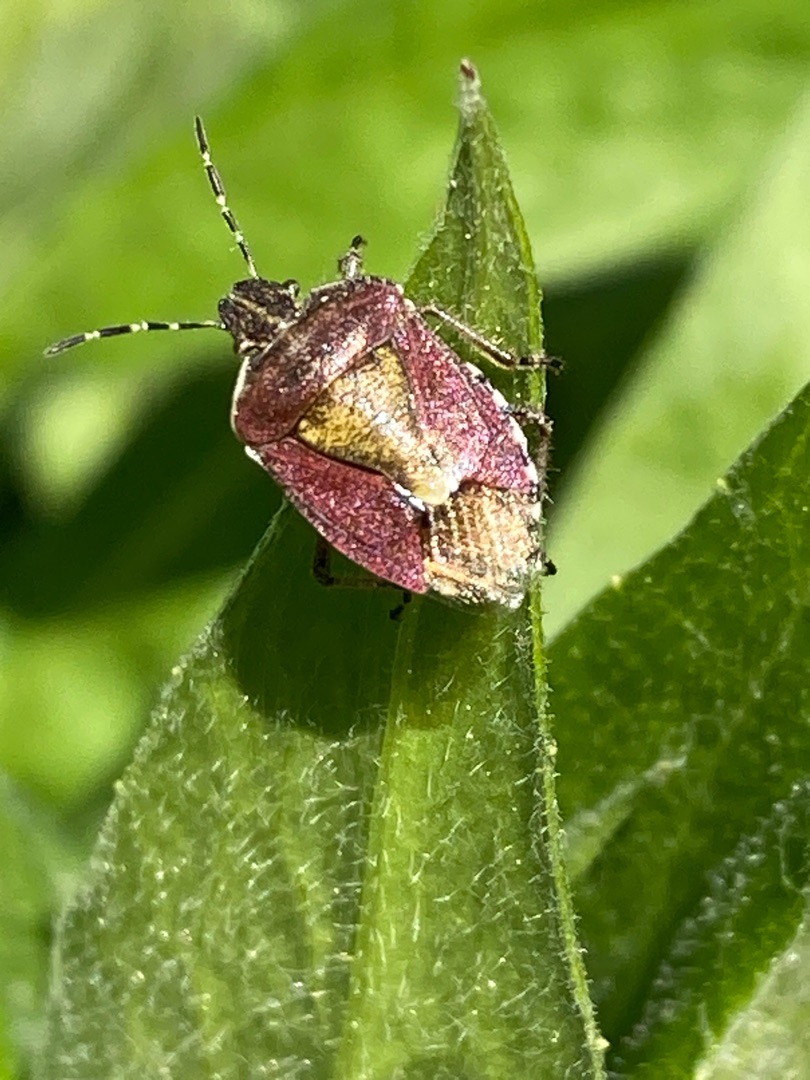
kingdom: Animalia
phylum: Arthropoda
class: Insecta
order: Hemiptera
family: Pentatomidae
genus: Dolycoris
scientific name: Dolycoris baccarum
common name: Almindelig bærtæge
